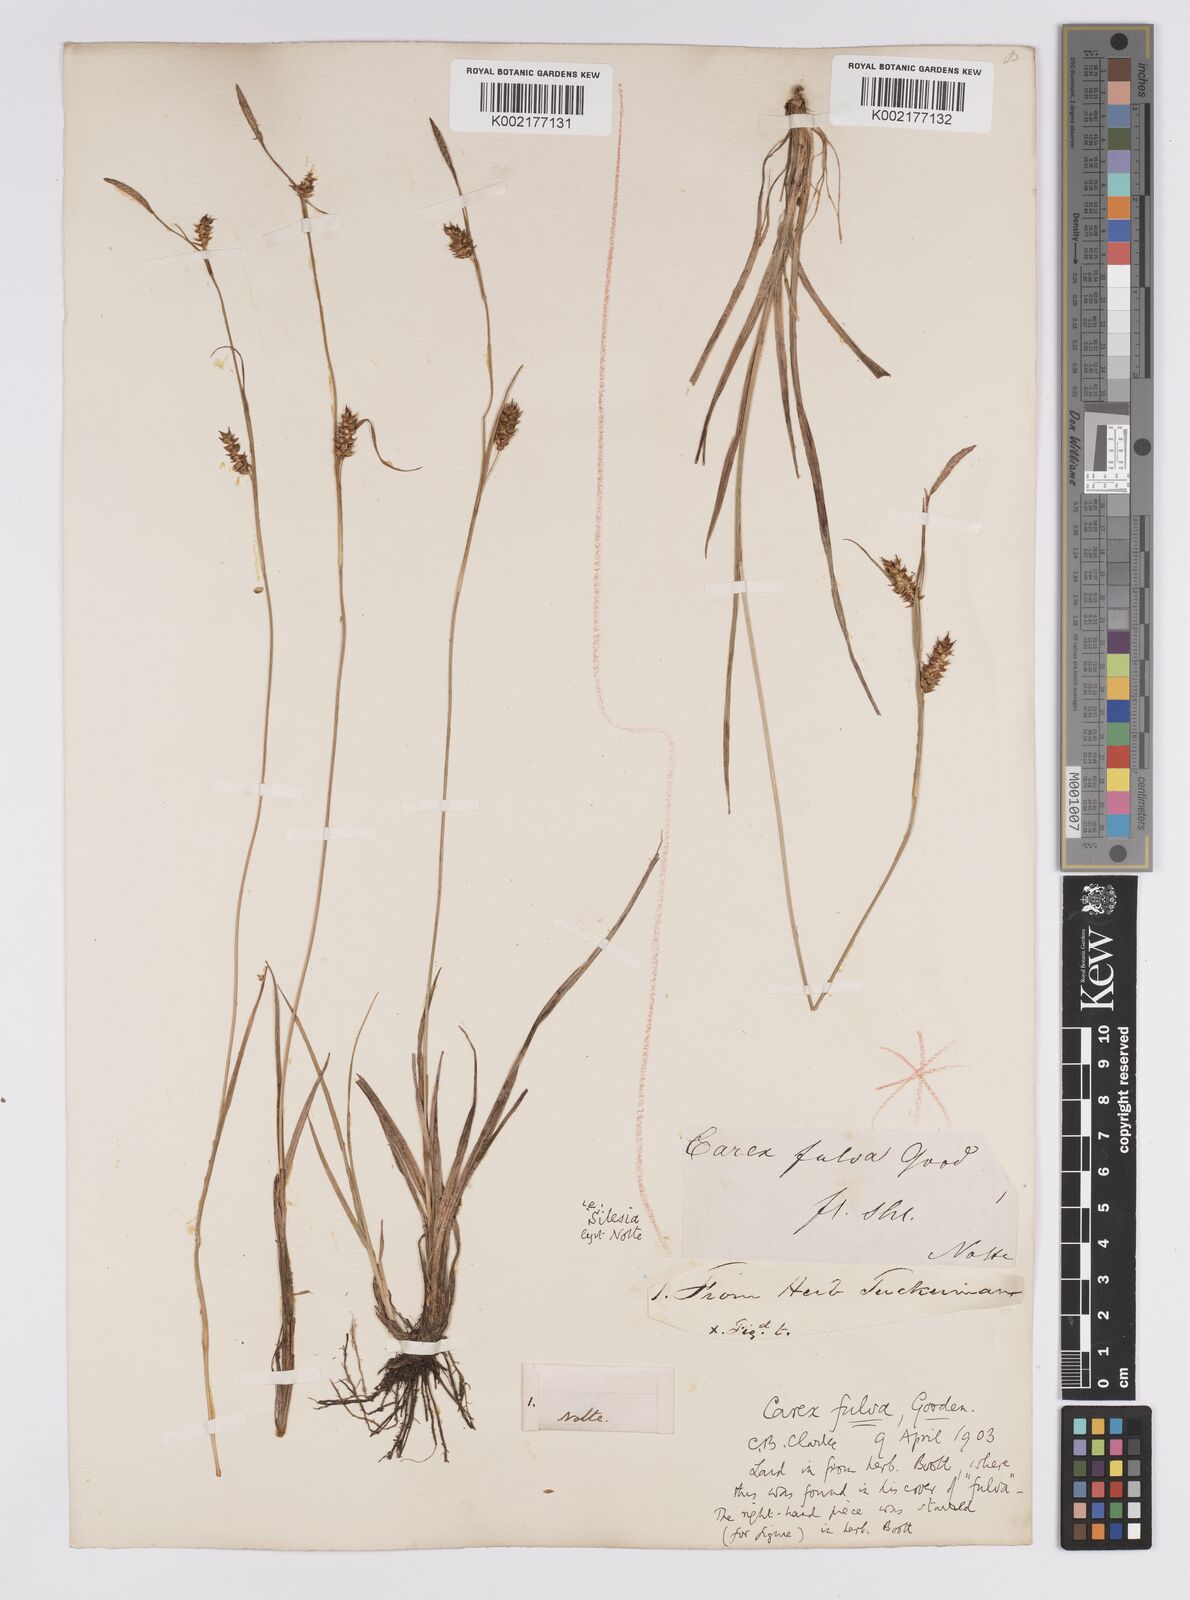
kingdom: Plantae
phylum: Tracheophyta
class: Liliopsida
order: Poales
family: Cyperaceae
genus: Carex
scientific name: Carex hostiana
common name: Tawny sedge
